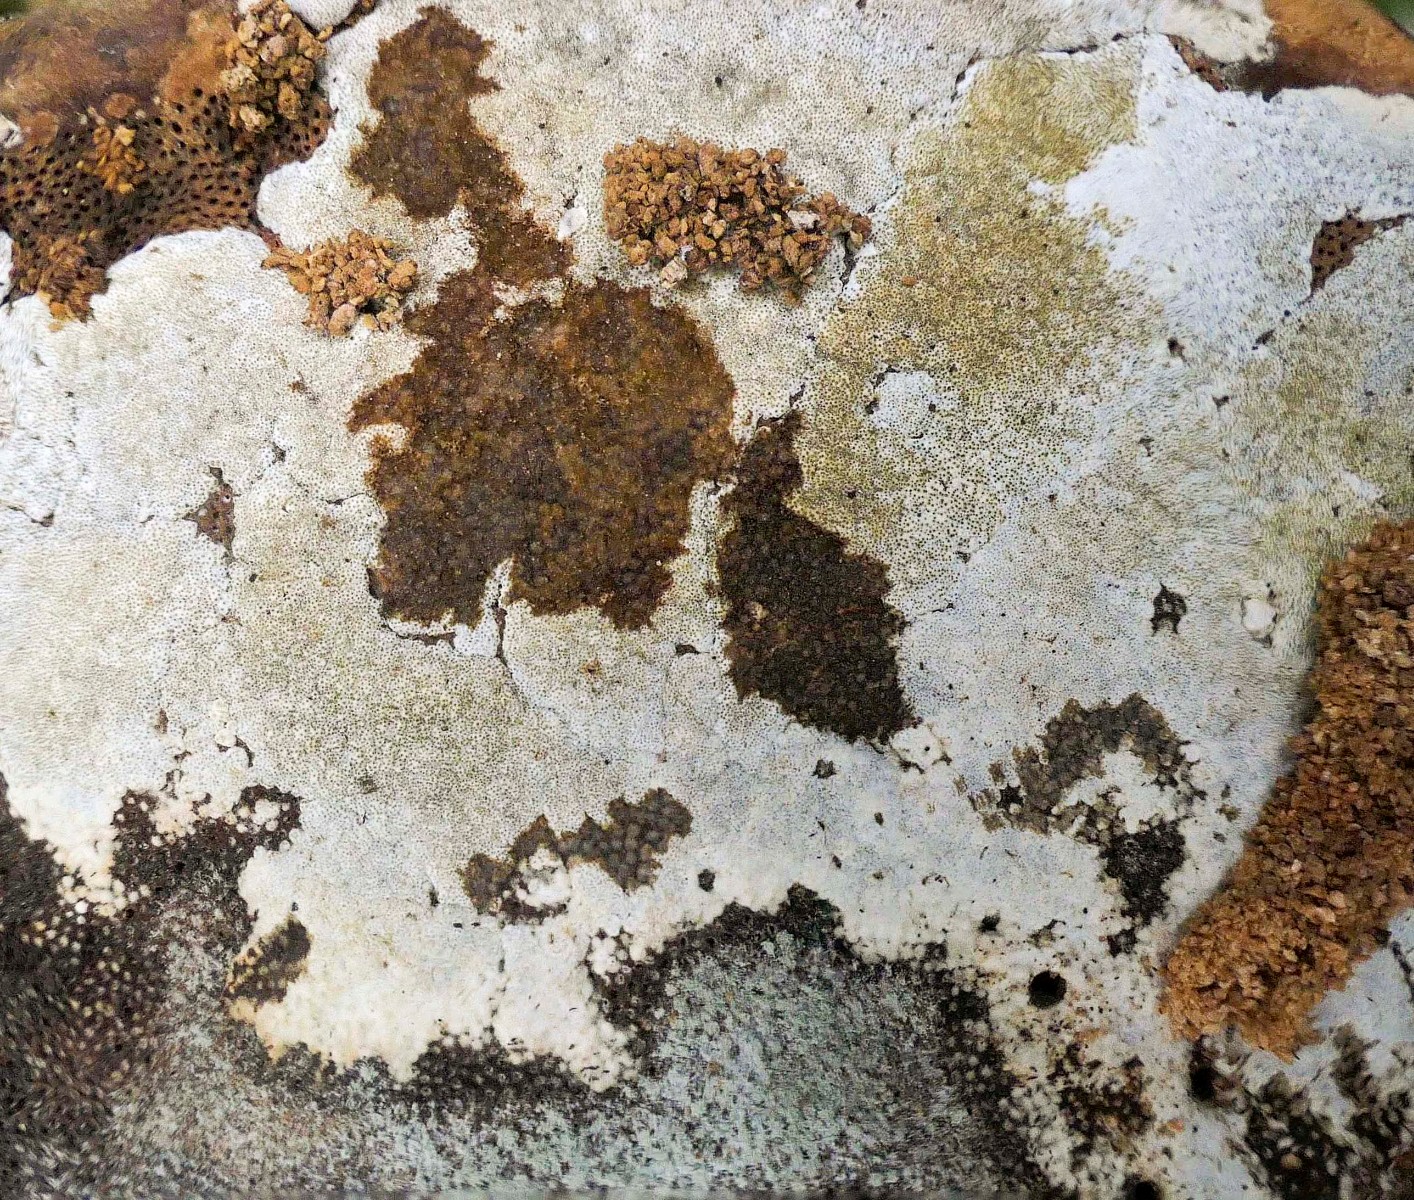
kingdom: Fungi
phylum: Ascomycota
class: Sordariomycetes
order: Hypocreales
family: Hypocreaceae
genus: Trichoderma
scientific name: Trichoderma protopulvinatum
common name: hovpore-kødkerne
